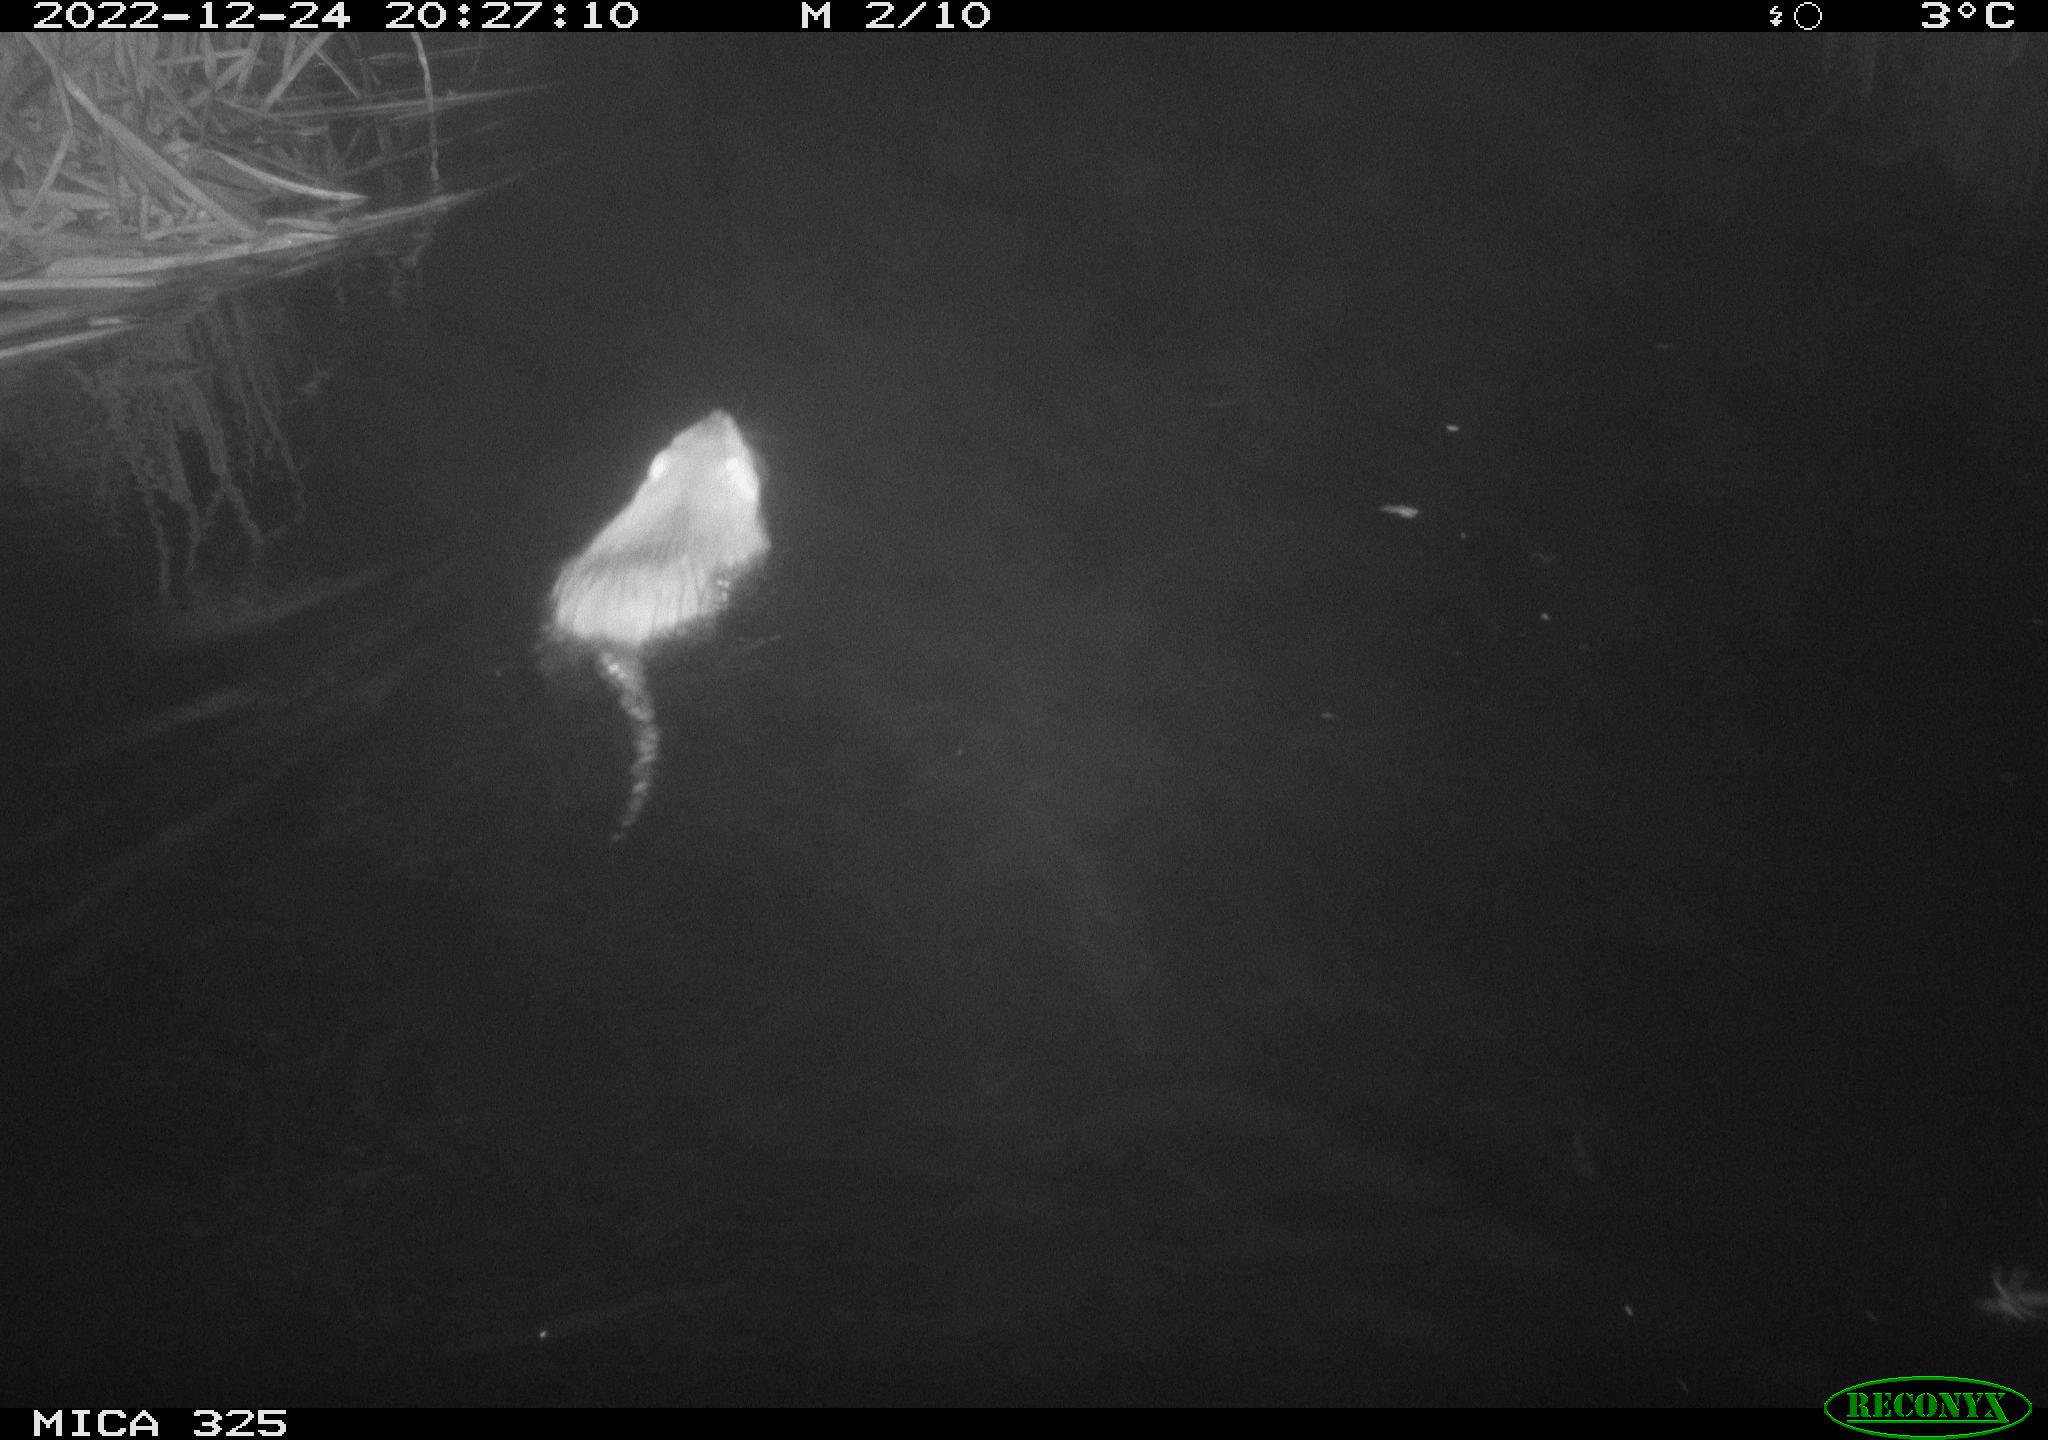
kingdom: Animalia
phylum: Chordata
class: Mammalia
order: Rodentia
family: Myocastoridae
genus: Myocastor
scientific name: Myocastor coypus
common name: Coypu
